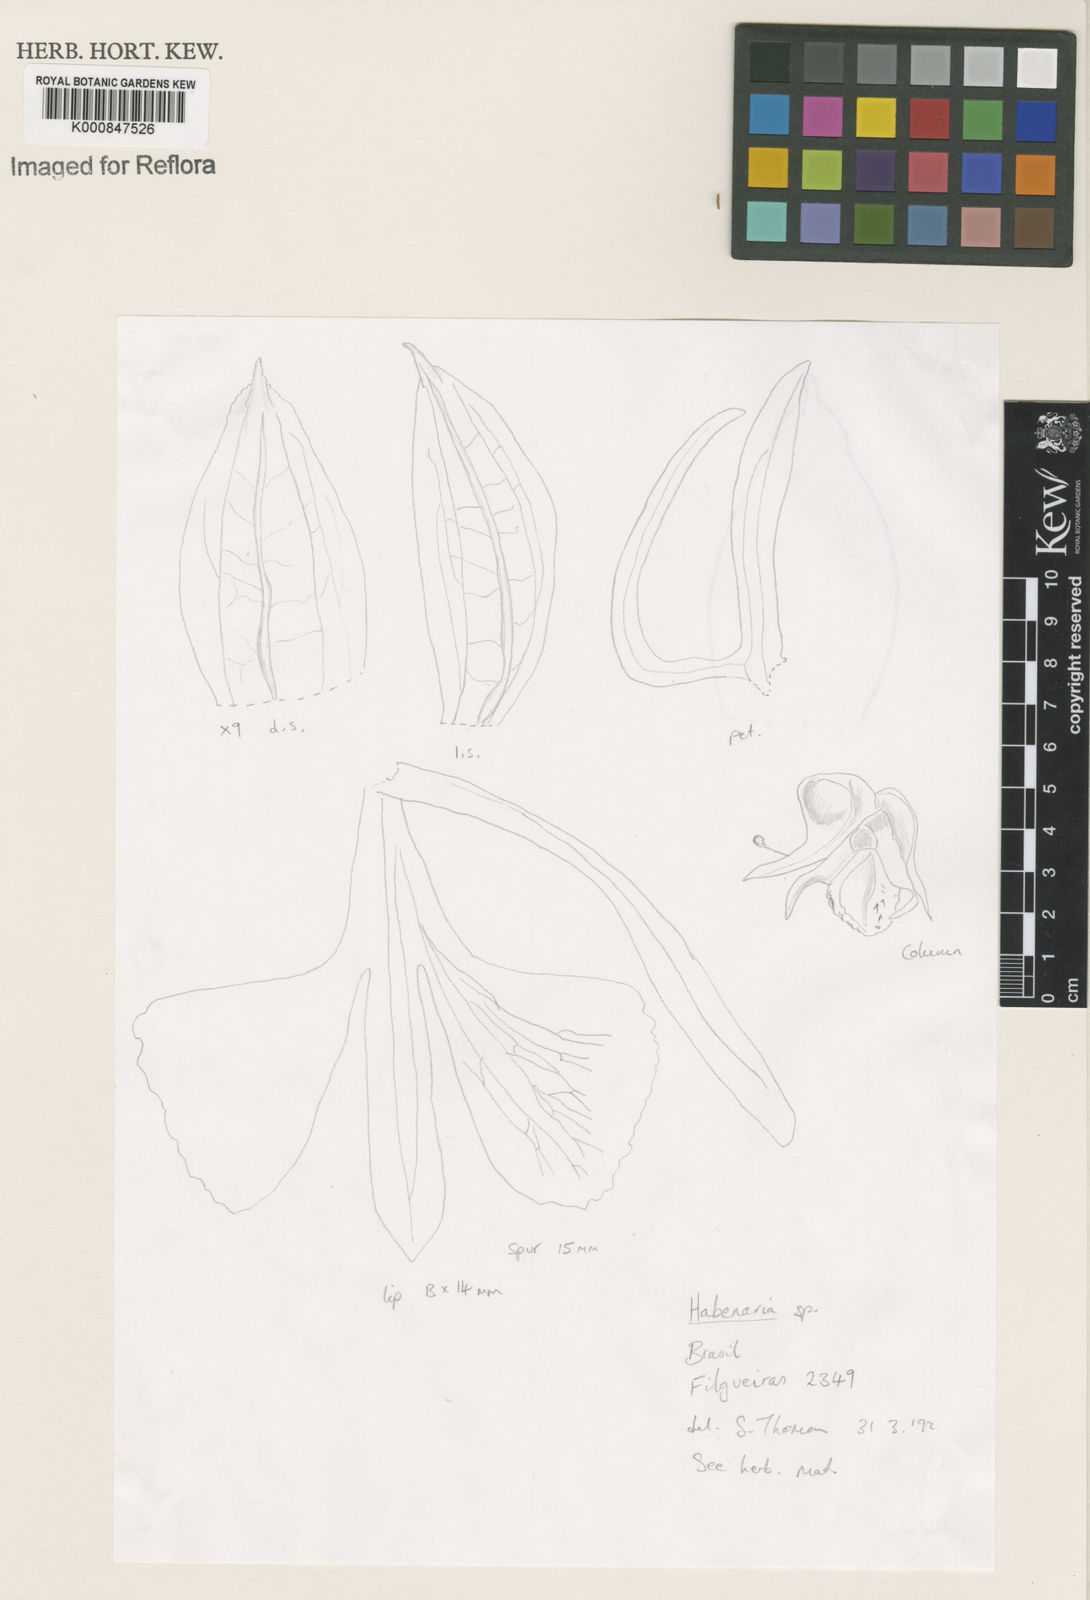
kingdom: Plantae
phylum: Tracheophyta
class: Liliopsida
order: Asparagales
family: Orchidaceae
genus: Habenaria
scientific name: Habenaria
